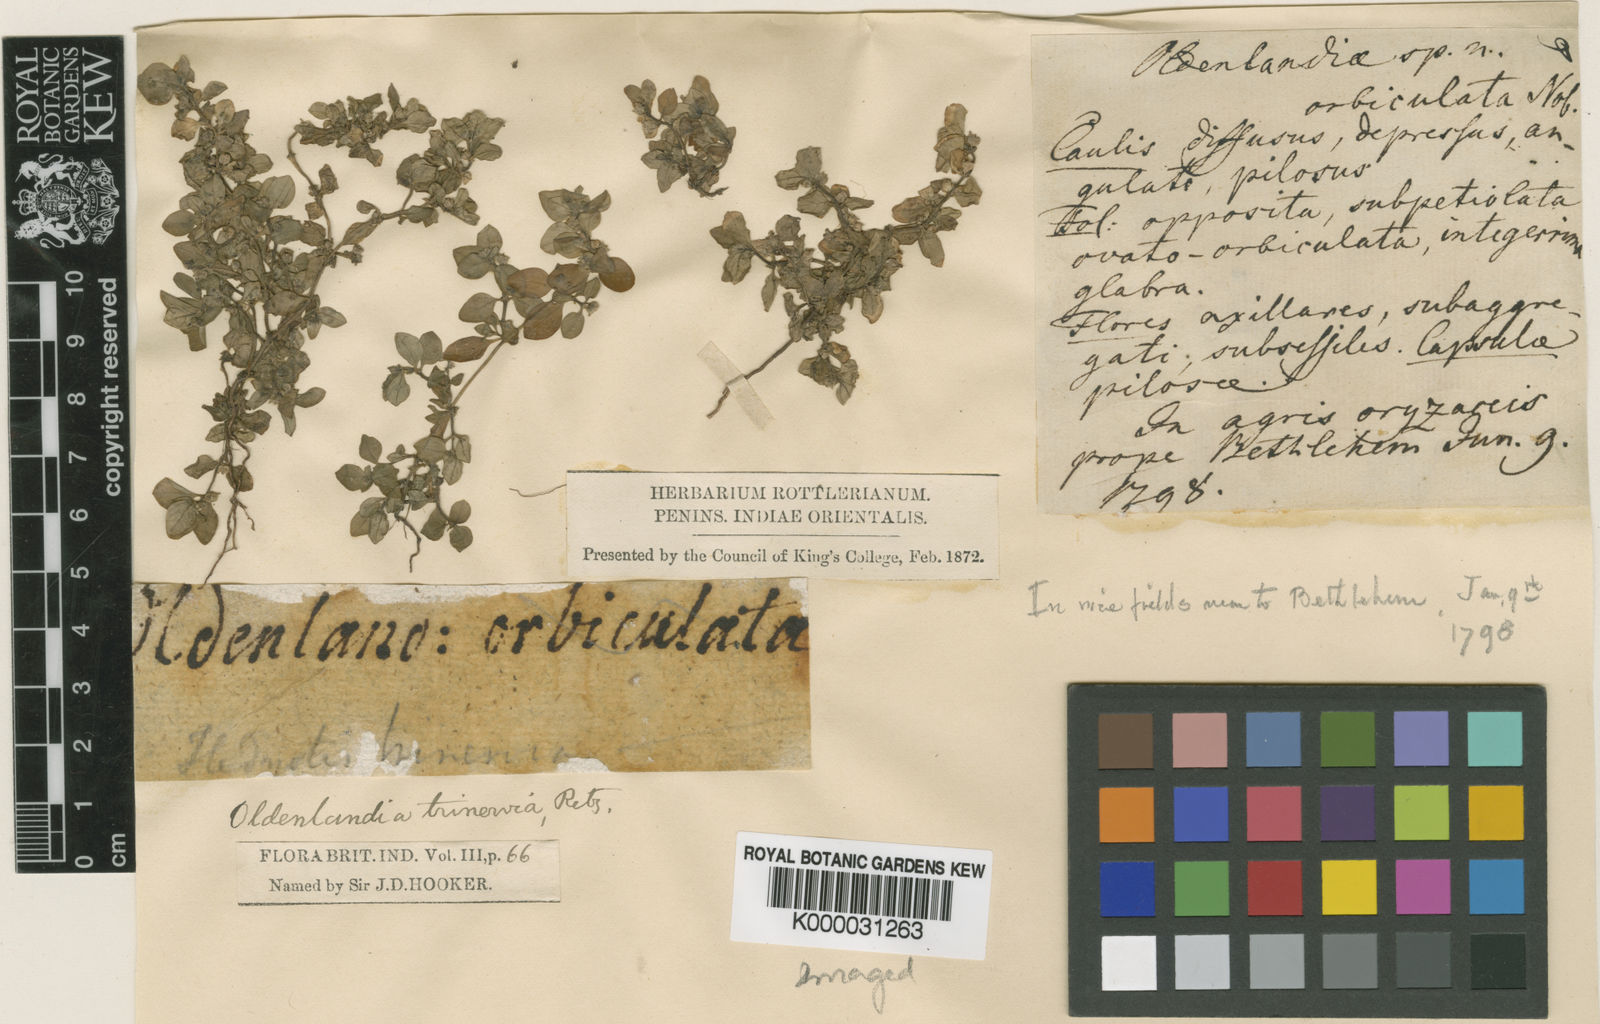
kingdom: Plantae
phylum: Tracheophyta
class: Magnoliopsida
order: Gentianales
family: Rubiaceae
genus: Edrastima
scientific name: Edrastima trinervia
